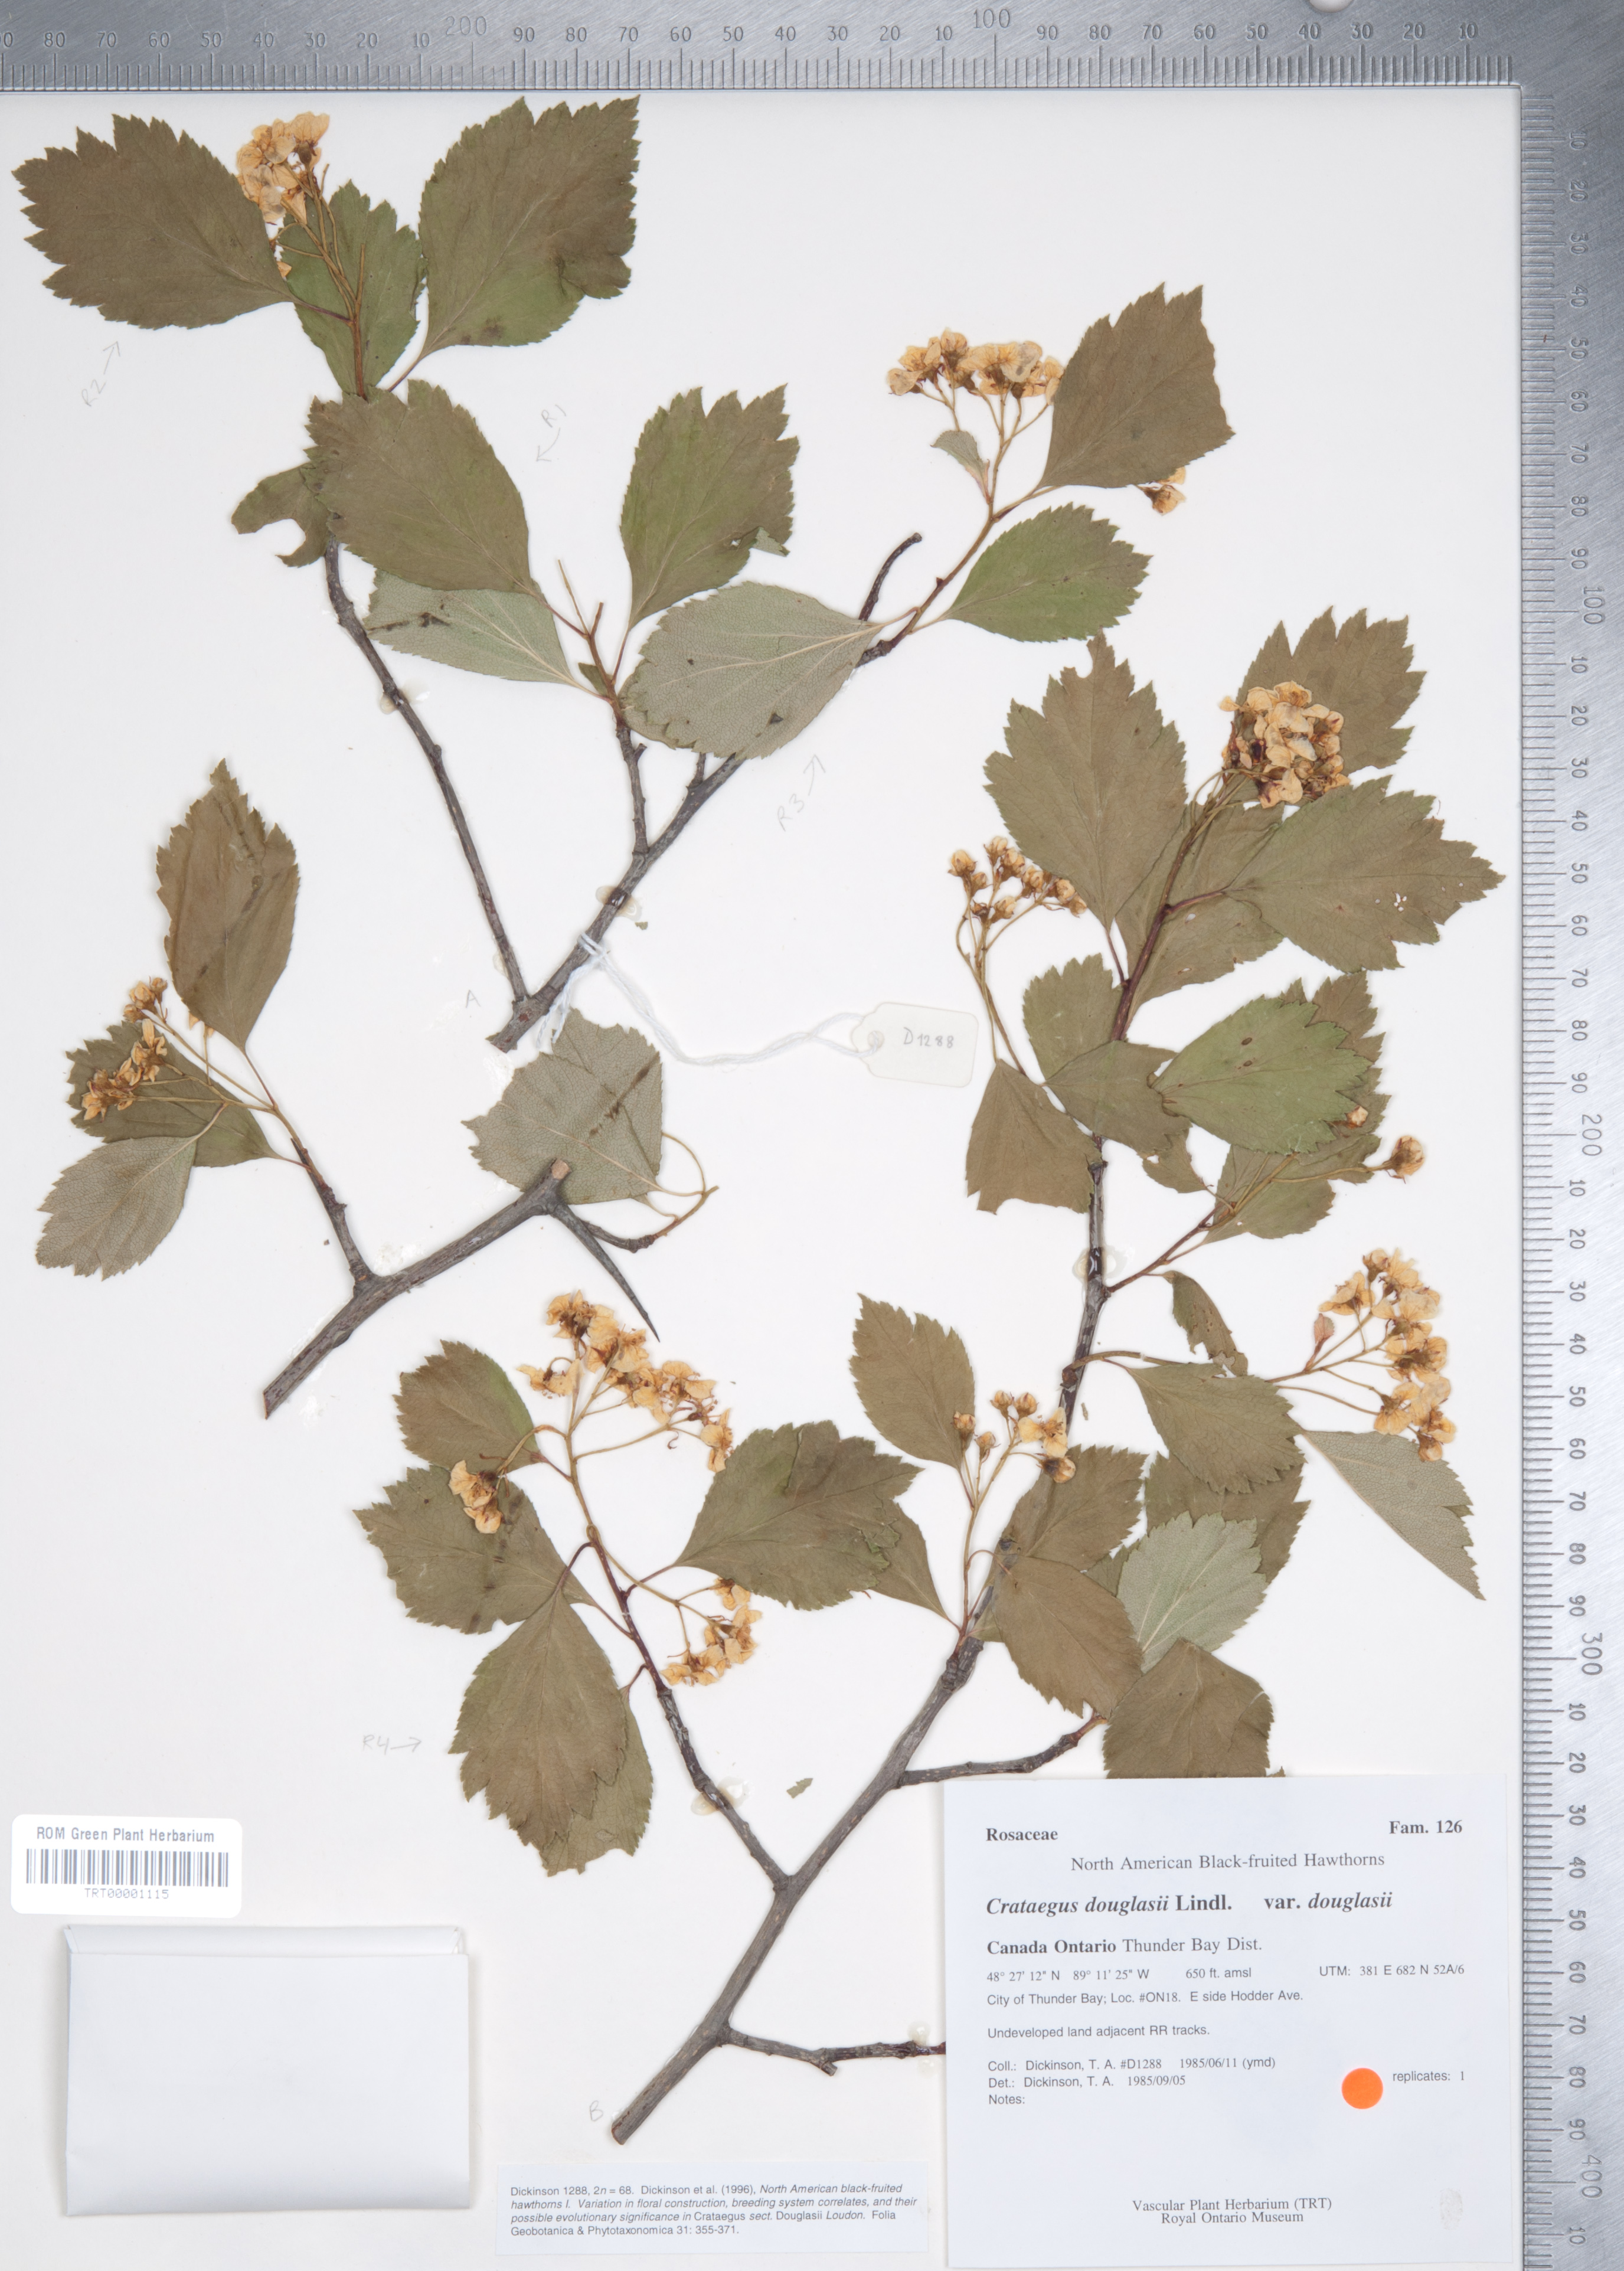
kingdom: Plantae
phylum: Tracheophyta
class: Magnoliopsida
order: Rosales
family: Rosaceae
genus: Crataegus
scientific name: Crataegus douglasii
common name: Black hawthorn
